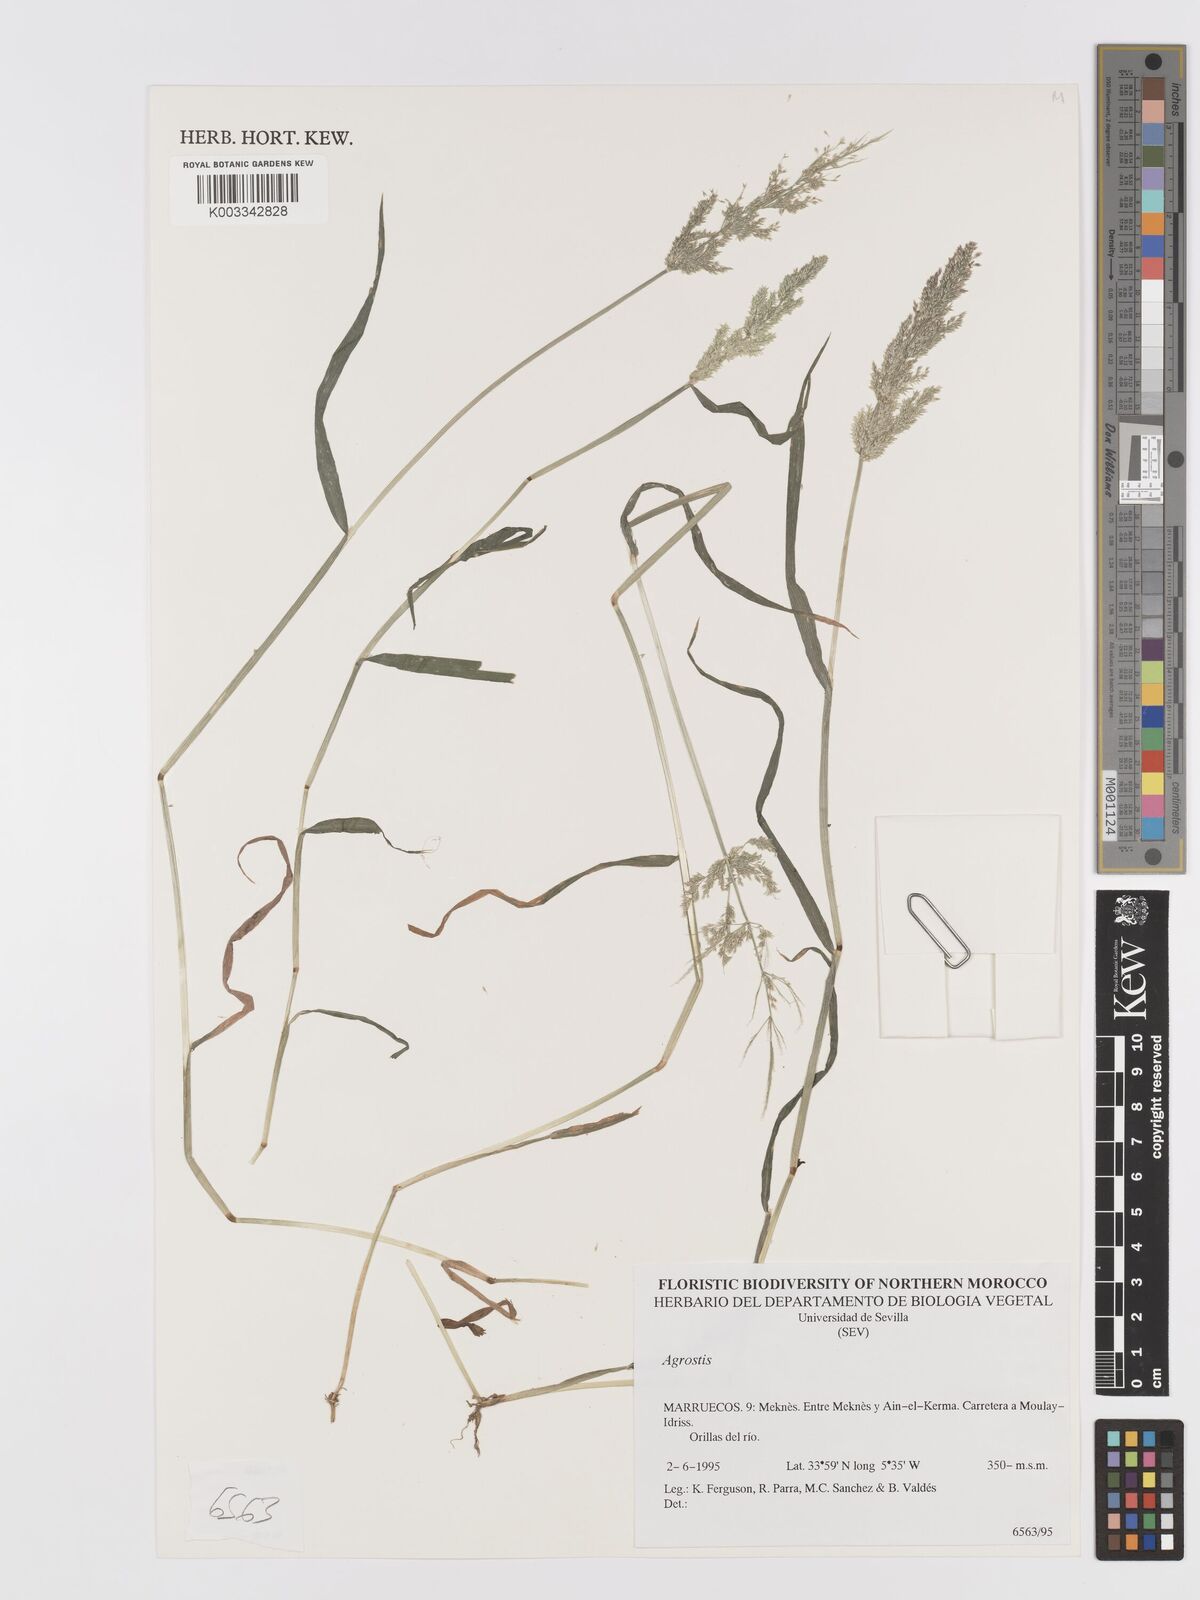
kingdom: Plantae
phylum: Tracheophyta
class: Liliopsida
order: Poales
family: Poaceae
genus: Agrostis
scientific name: Agrostis
